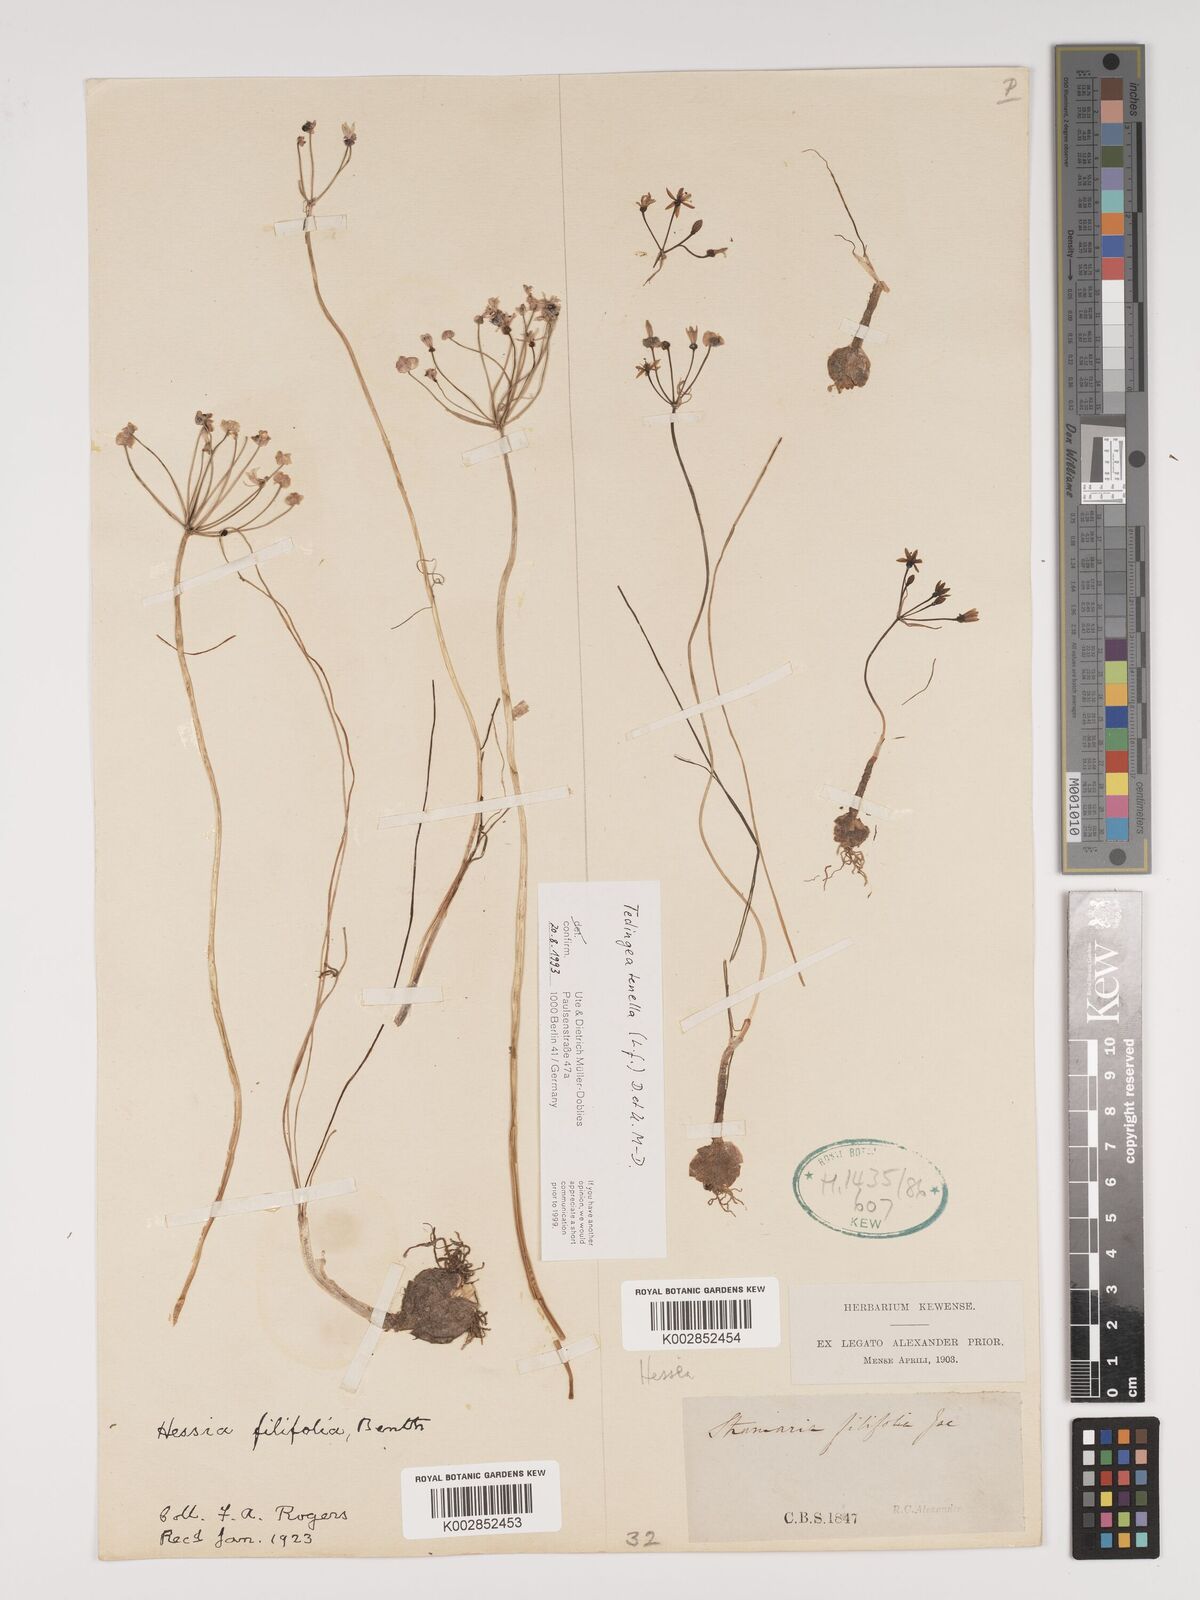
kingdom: Plantae
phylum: Tracheophyta
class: Liliopsida
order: Asparagales
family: Amaryllidaceae
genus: Strumaria
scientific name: Strumaria tenella
